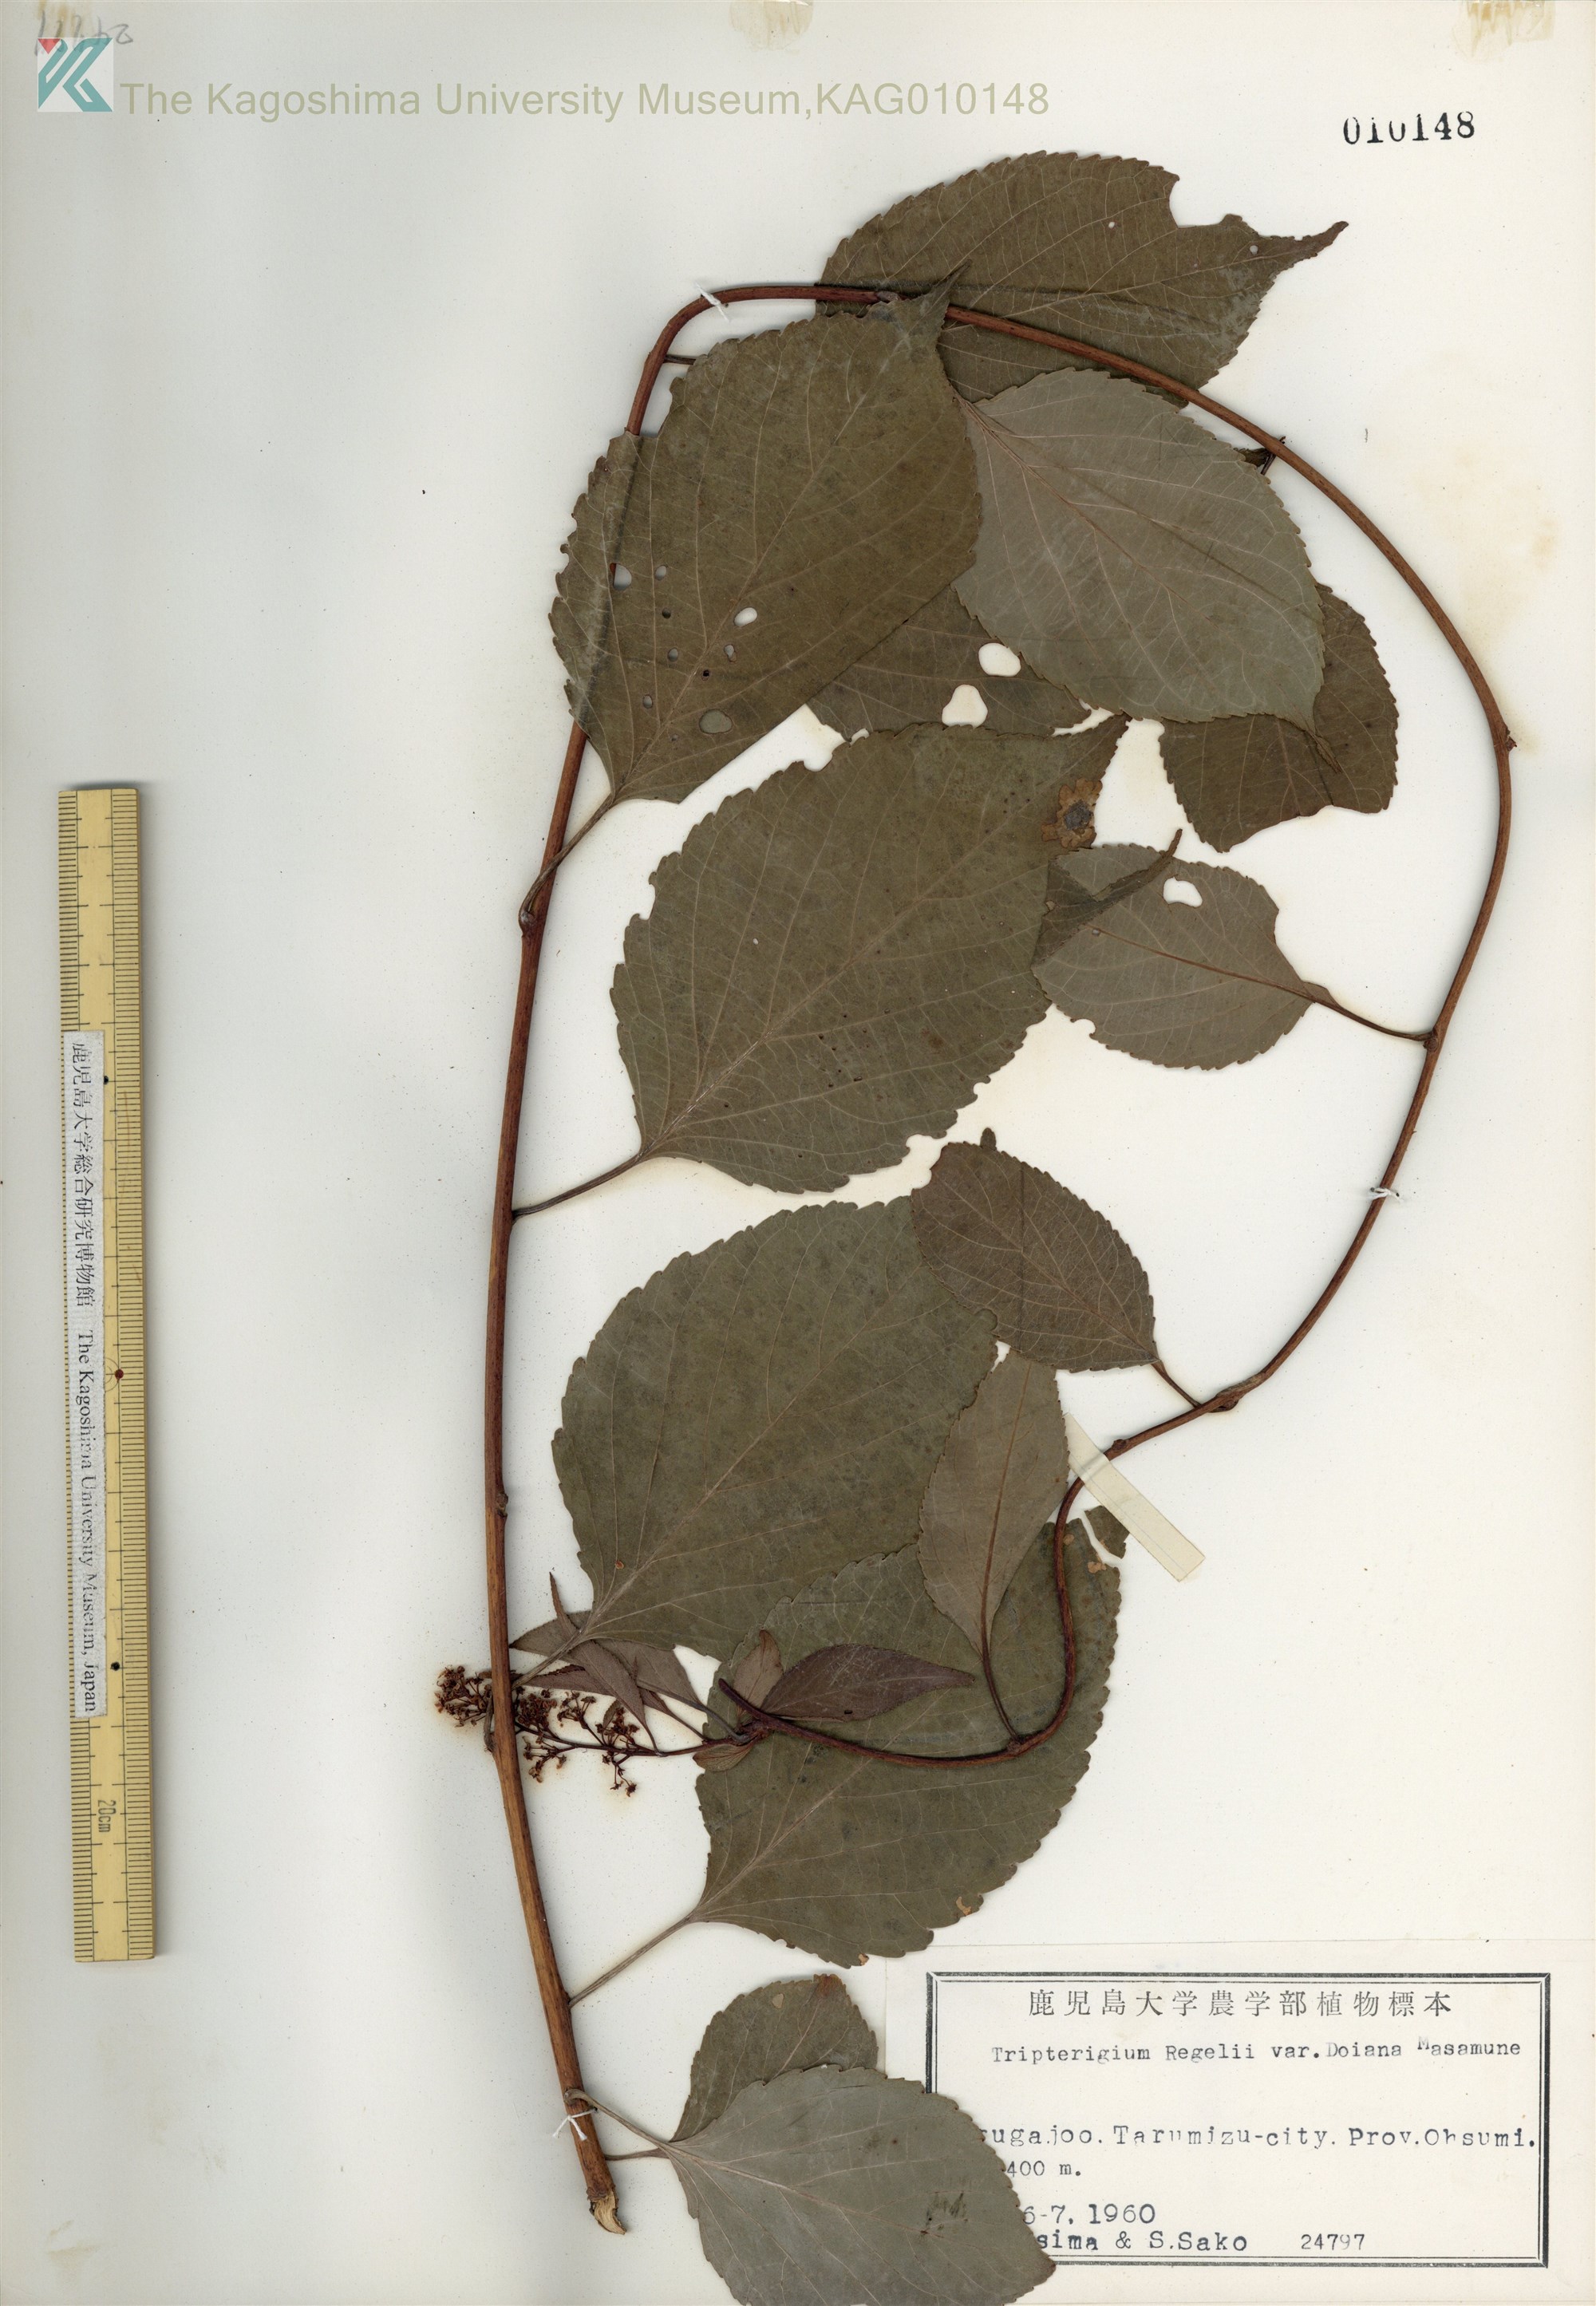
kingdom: Plantae
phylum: Tracheophyta
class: Magnoliopsida
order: Celastrales
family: Celastraceae
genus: Tripterygium
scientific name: Tripterygium doianum
